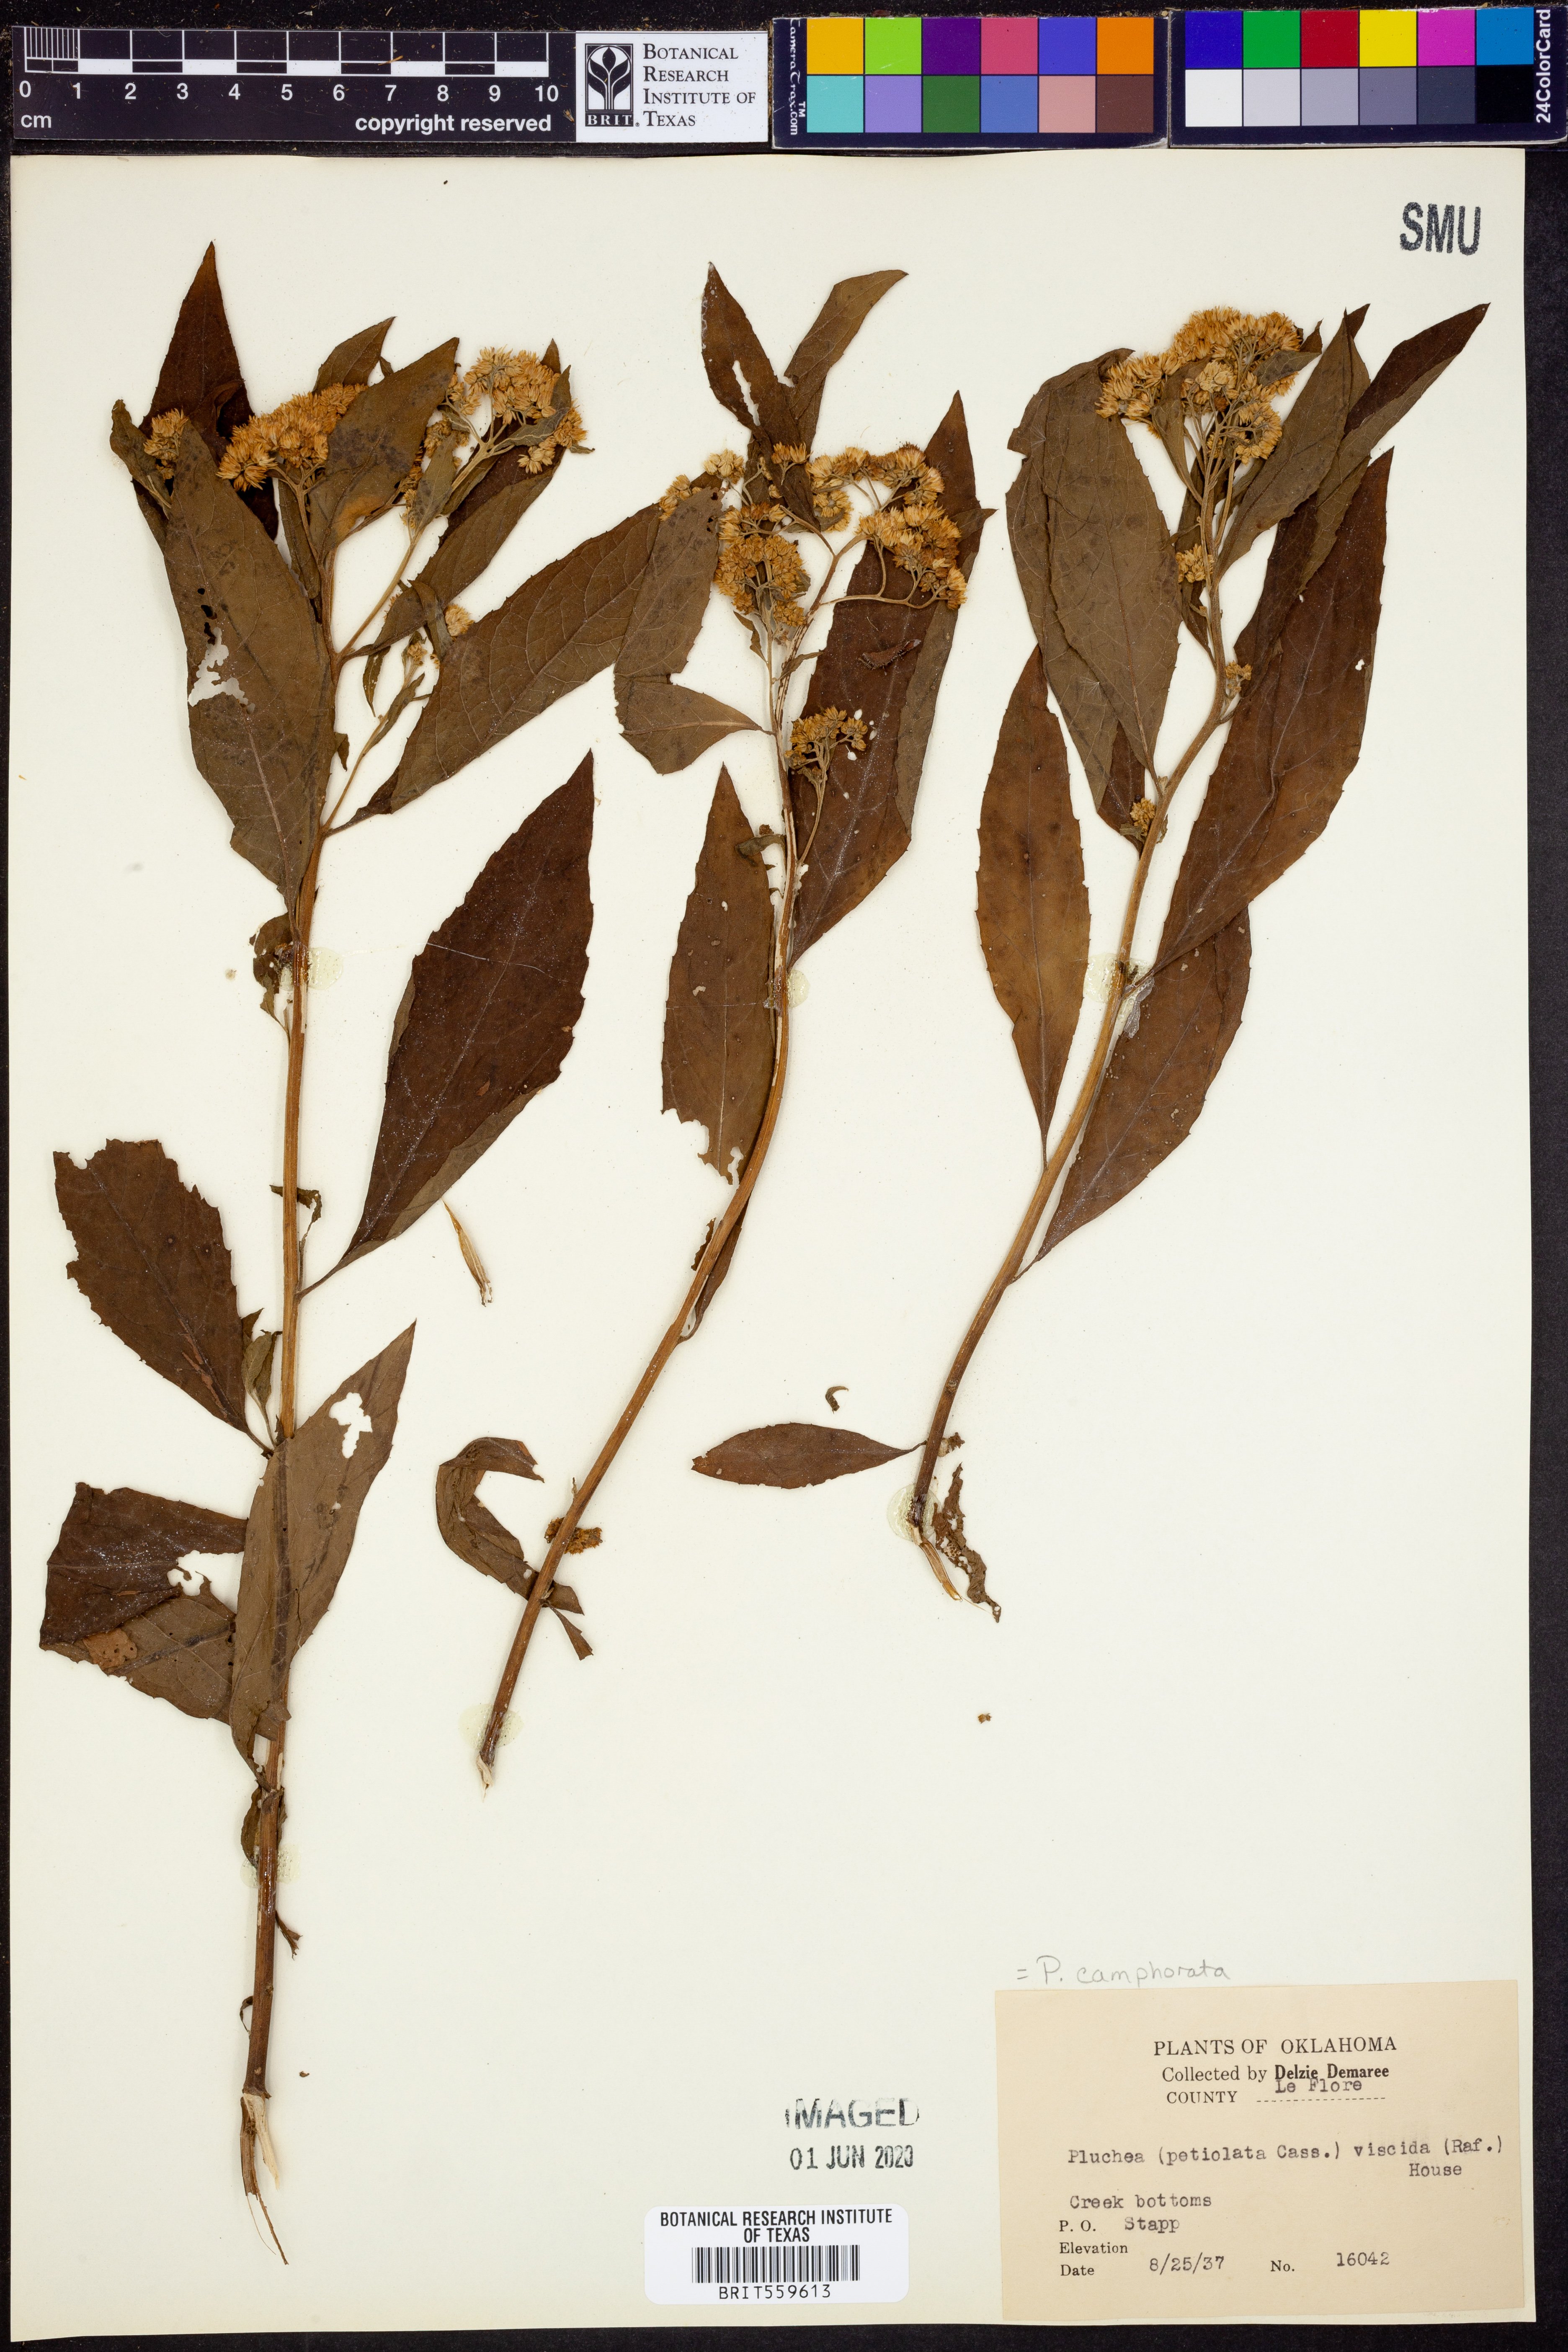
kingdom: Plantae
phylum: Tracheophyta
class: Magnoliopsida
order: Asterales
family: Asteraceae
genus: Pluchea
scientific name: Pluchea camphorata
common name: Camphor pluchea
